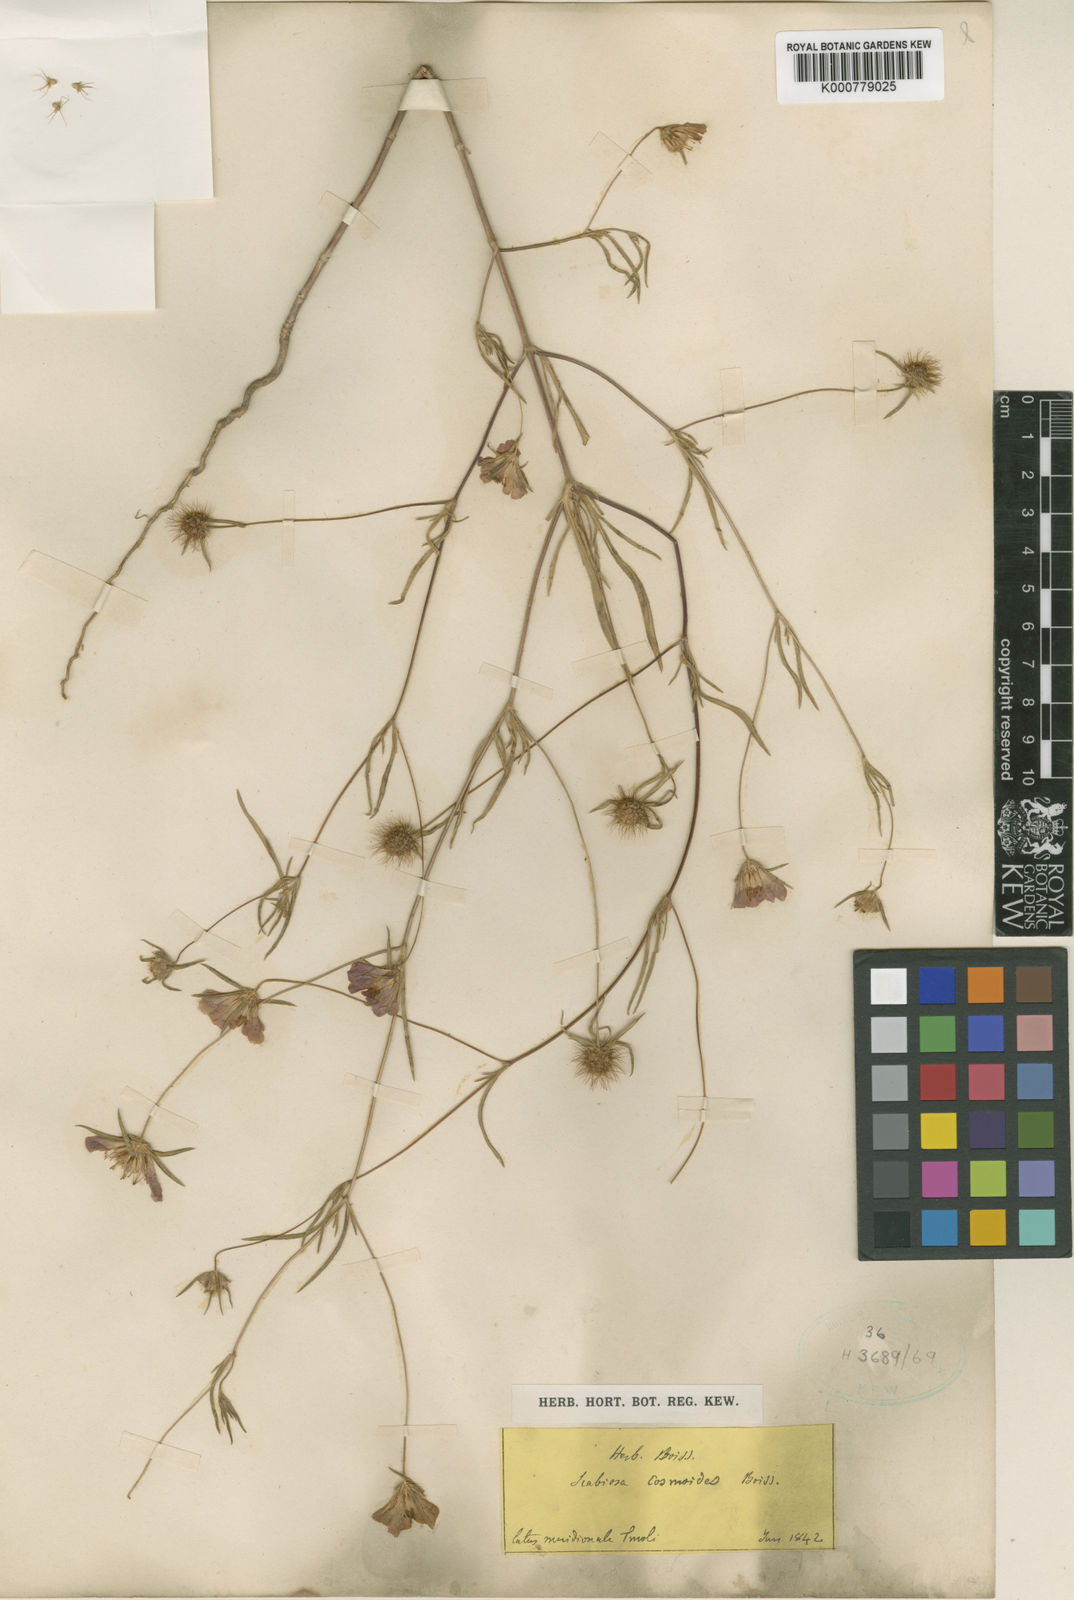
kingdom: Plantae
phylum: Tracheophyta
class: Magnoliopsida
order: Dipsacales
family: Caprifoliaceae
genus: Lomelosia
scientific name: Lomelosia cosmoides
